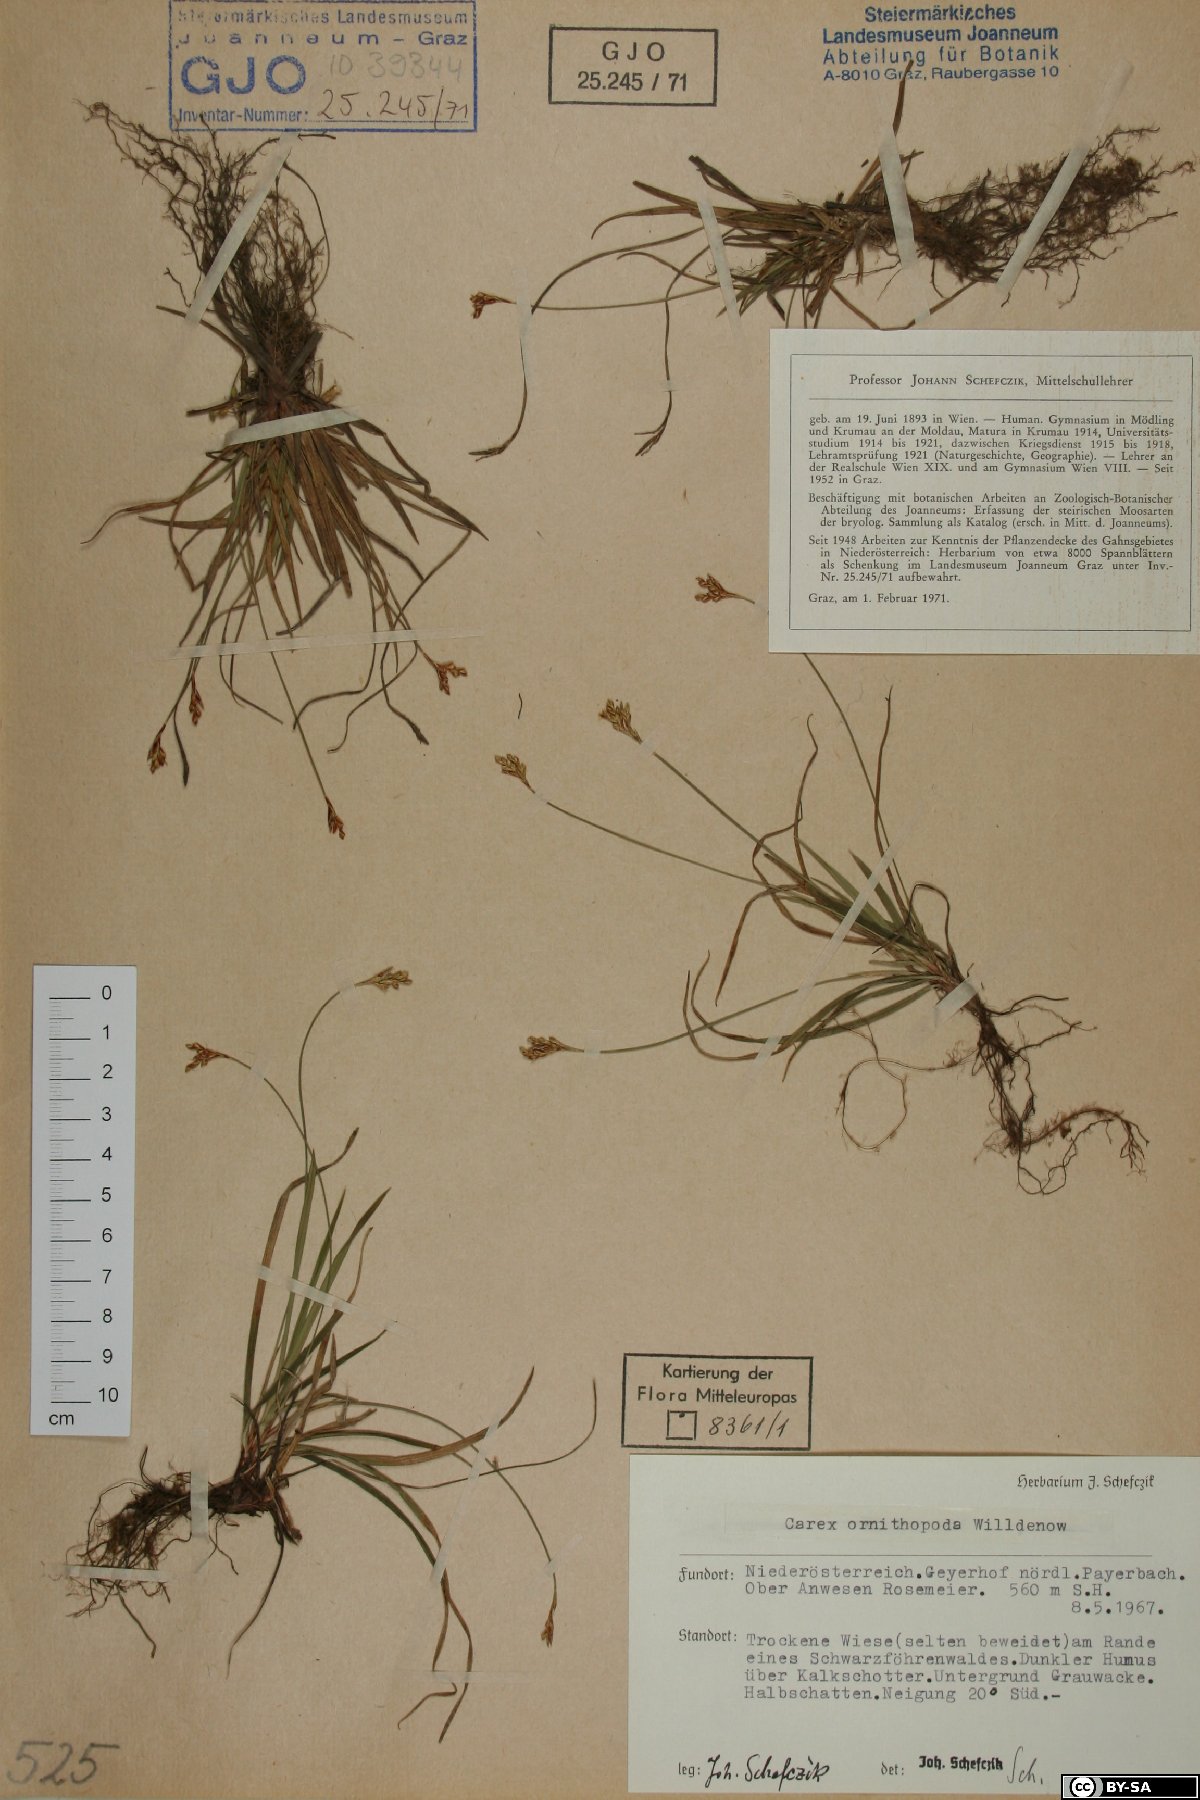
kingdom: Plantae
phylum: Tracheophyta
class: Liliopsida
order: Poales
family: Cyperaceae
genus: Carex
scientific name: Carex ornithopoda
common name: Bird's-foot sedge
